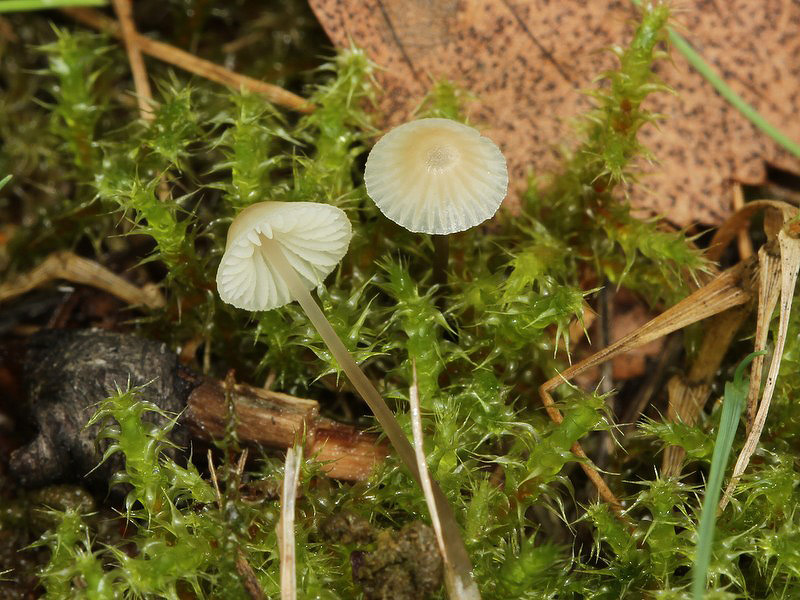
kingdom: Fungi
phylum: Basidiomycota
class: Agaricomycetes
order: Agaricales
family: Mycenaceae
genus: Atheniella
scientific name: Atheniella flavoalba
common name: gulhvid huesvamp
